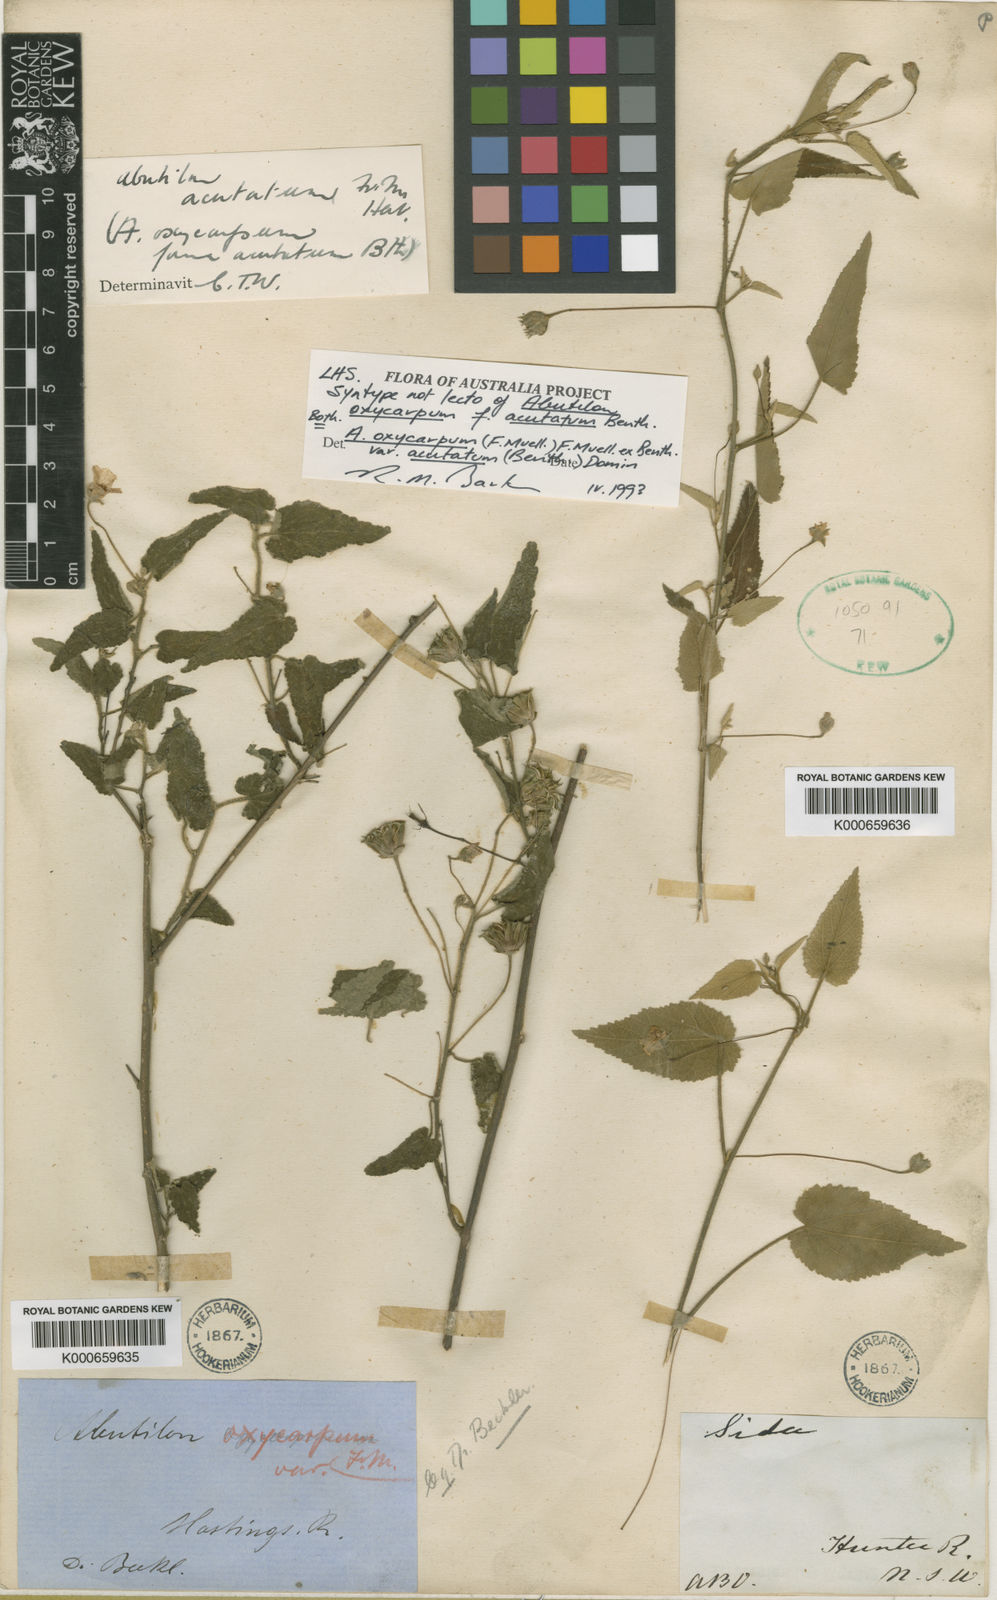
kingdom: Plantae
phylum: Tracheophyta
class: Magnoliopsida
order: Malvales
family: Malvaceae
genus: Abutilon
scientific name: Abutilon oxycarpum
